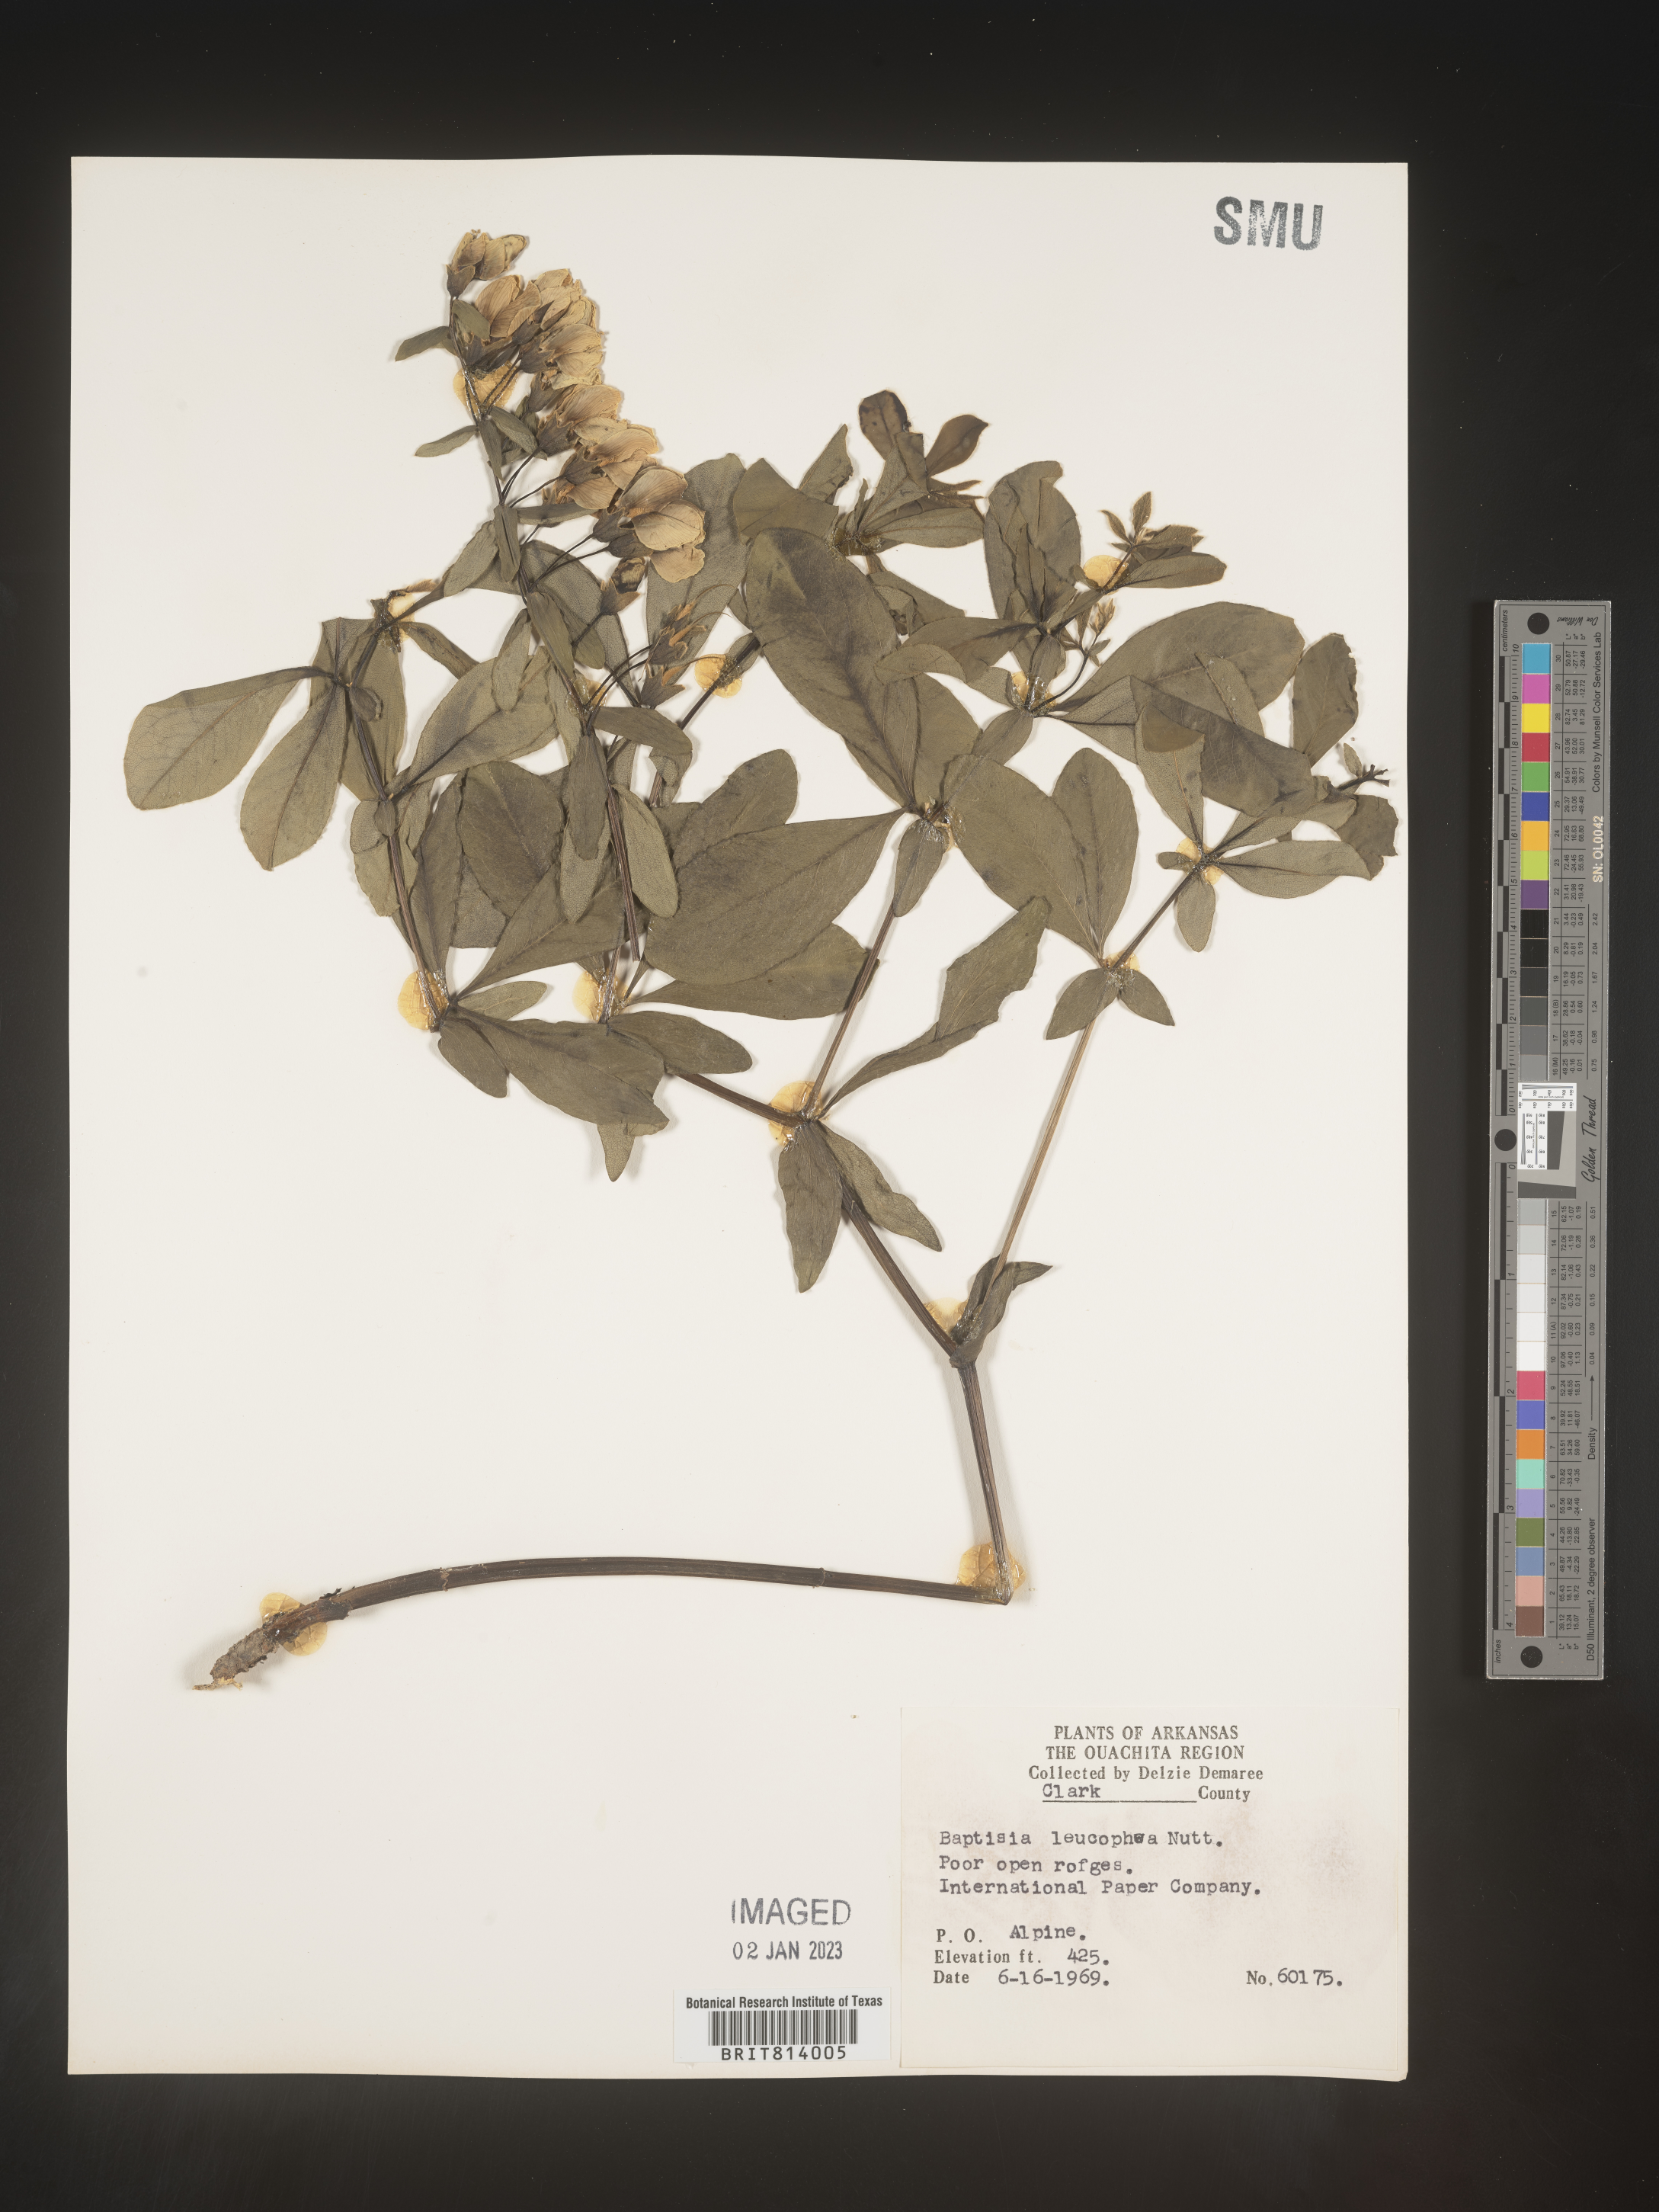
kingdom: Plantae
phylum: Tracheophyta
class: Magnoliopsida
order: Fabales
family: Fabaceae
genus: Baptisia
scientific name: Baptisia bracteata
